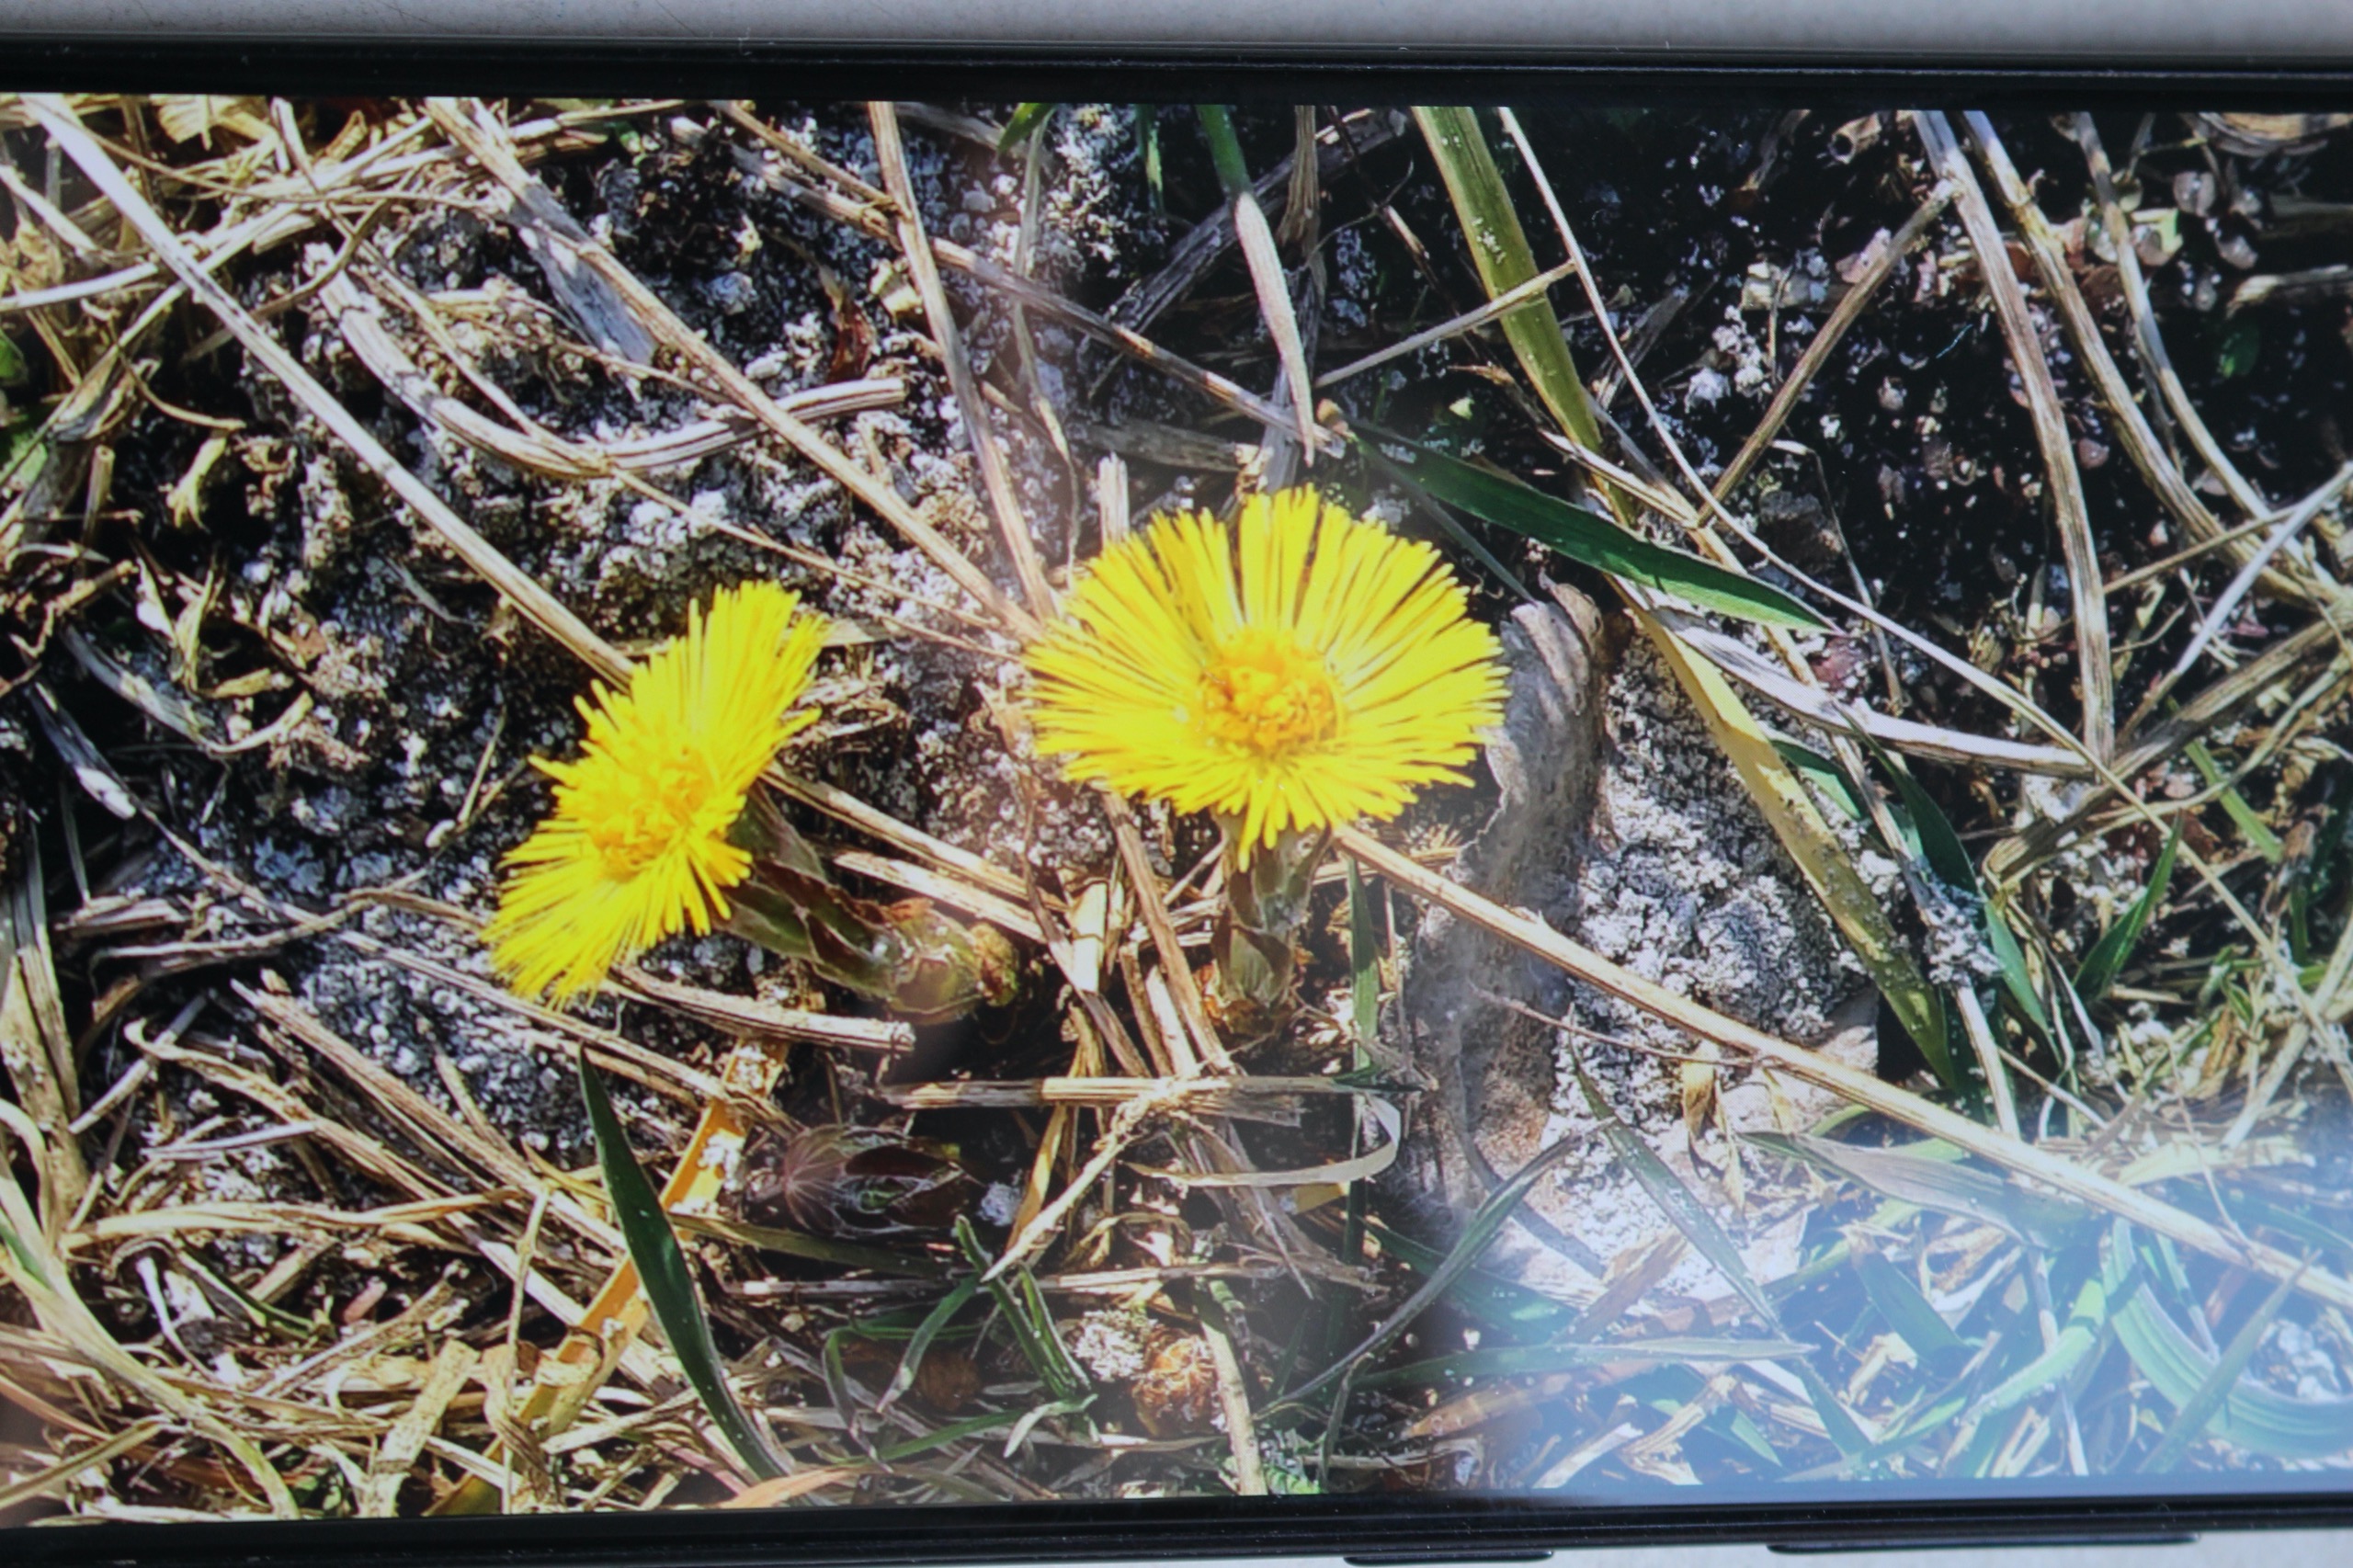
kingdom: Plantae
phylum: Tracheophyta
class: Magnoliopsida
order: Asterales
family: Asteraceae
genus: Tussilago
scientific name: Tussilago farfara
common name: Følfod
